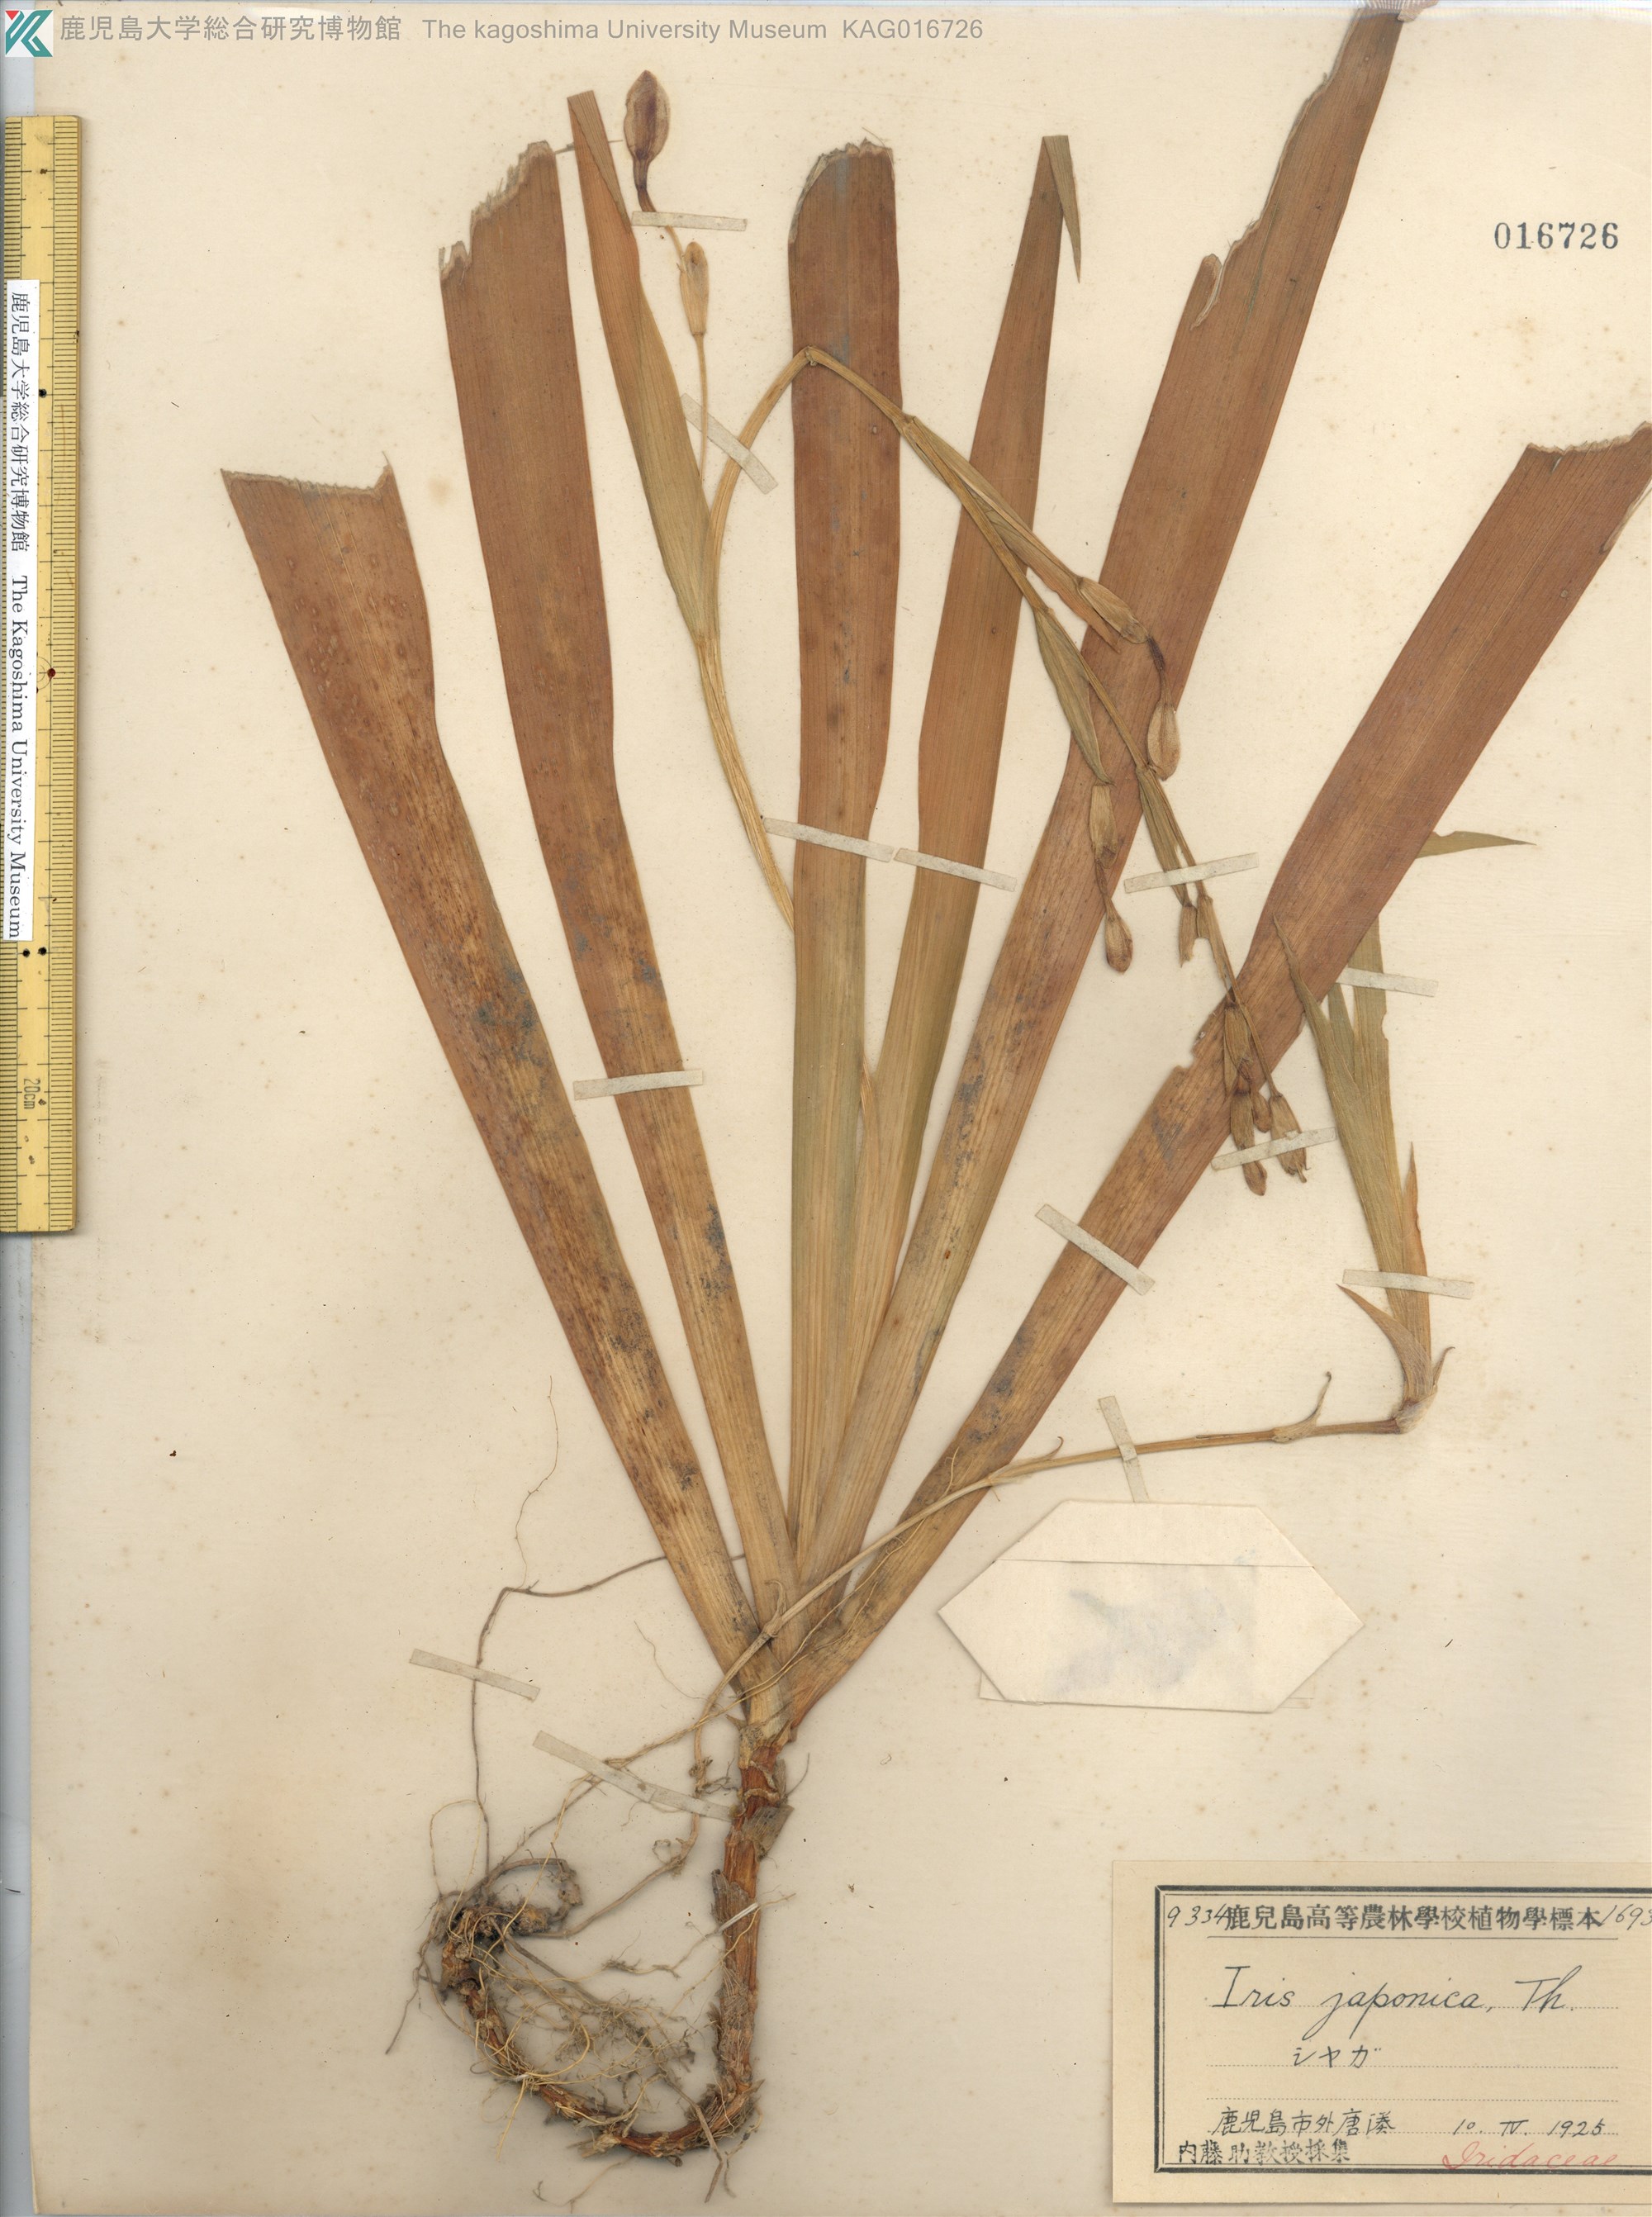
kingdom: Plantae
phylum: Tracheophyta
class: Liliopsida
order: Asparagales
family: Iridaceae
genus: Iris
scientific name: Iris japonica
